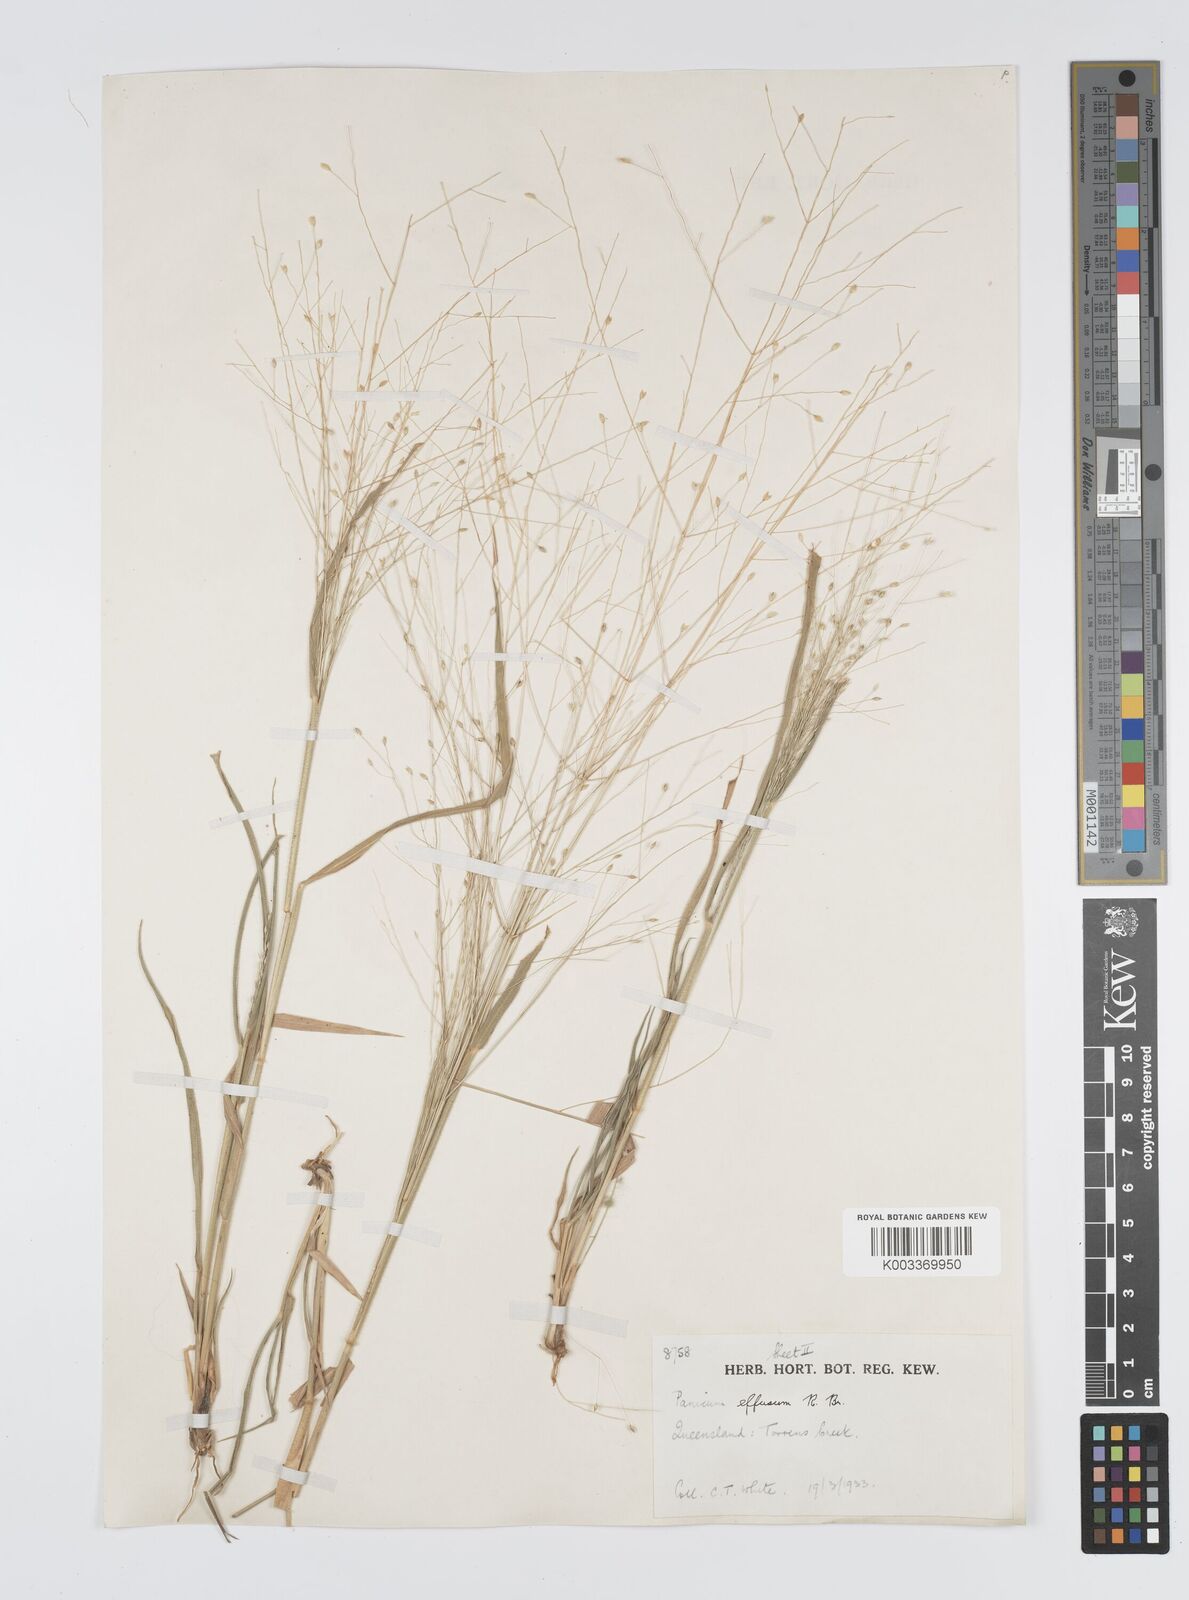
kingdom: Plantae
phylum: Tracheophyta
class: Liliopsida
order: Poales
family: Poaceae
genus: Panicum
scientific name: Panicum effusum
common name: Hairy panic grass
